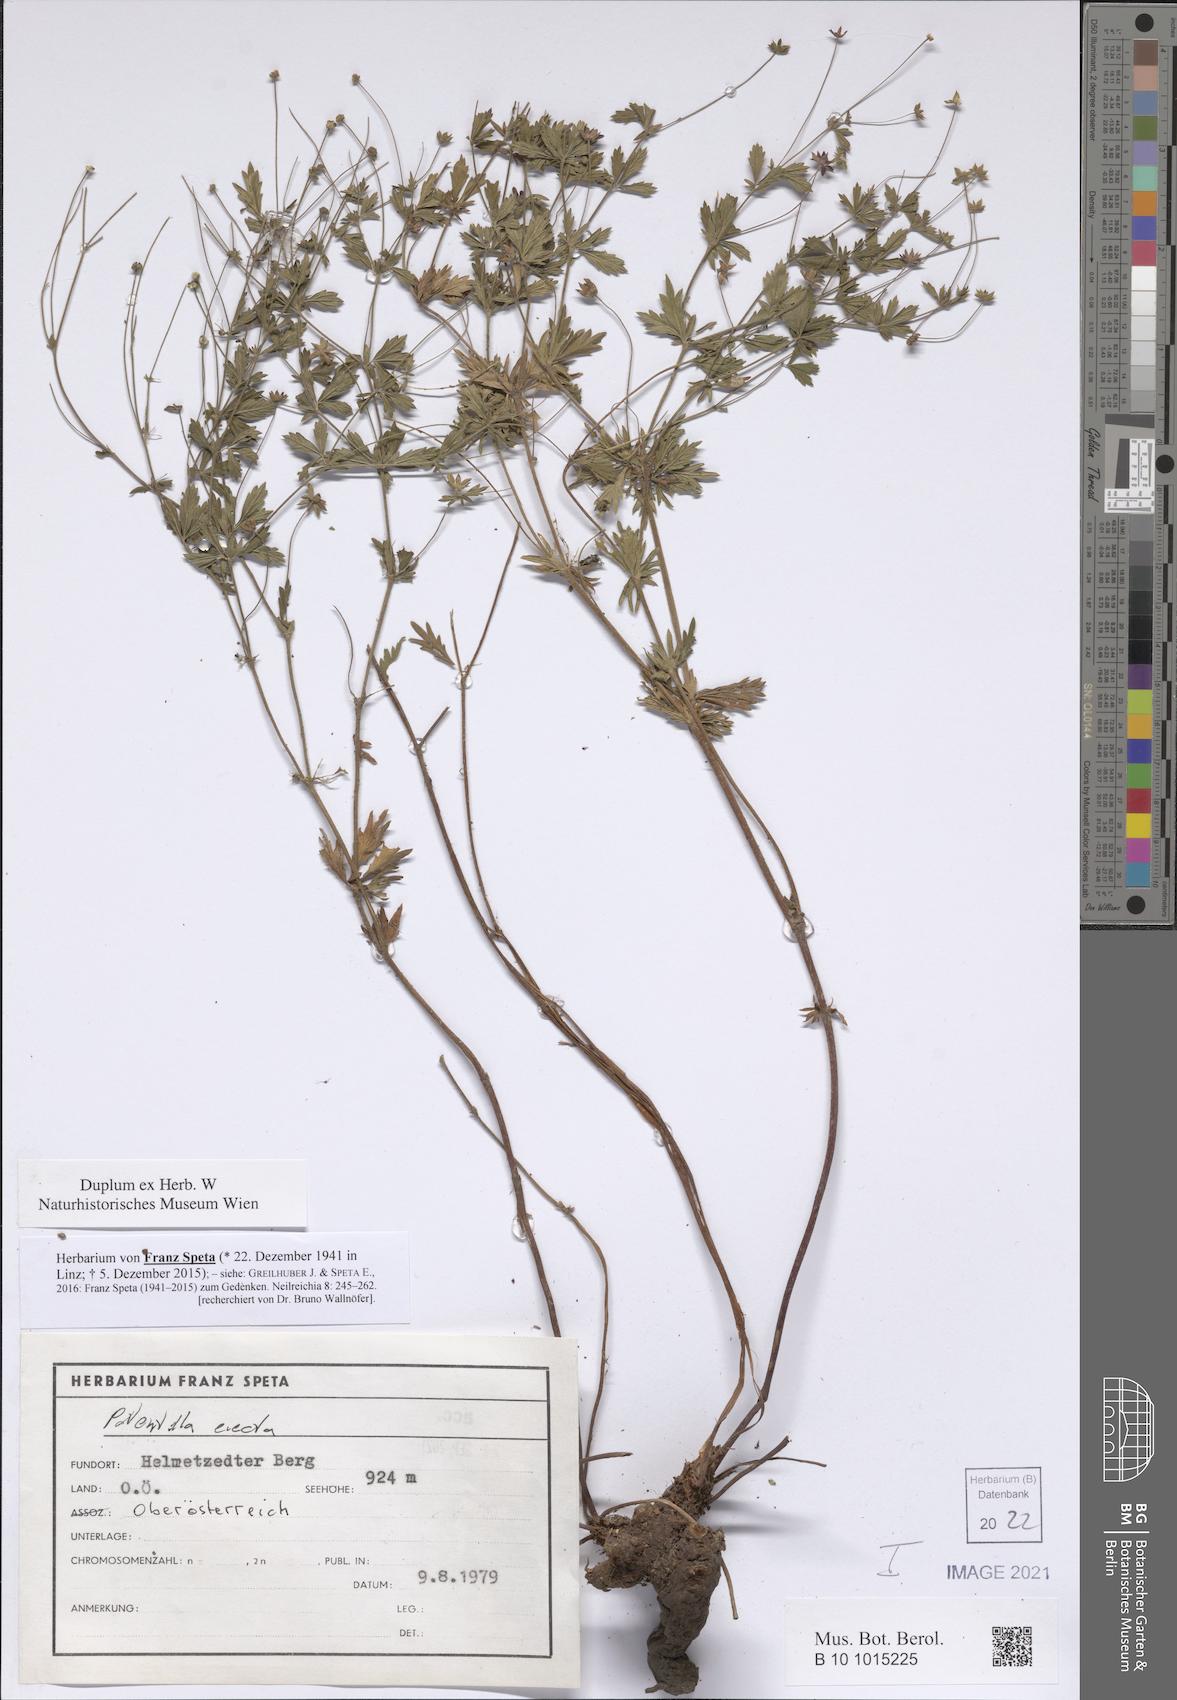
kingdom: Plantae
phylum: Tracheophyta
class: Magnoliopsida
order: Rosales
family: Rosaceae
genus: Potentilla
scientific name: Potentilla erecta
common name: Tormentil
